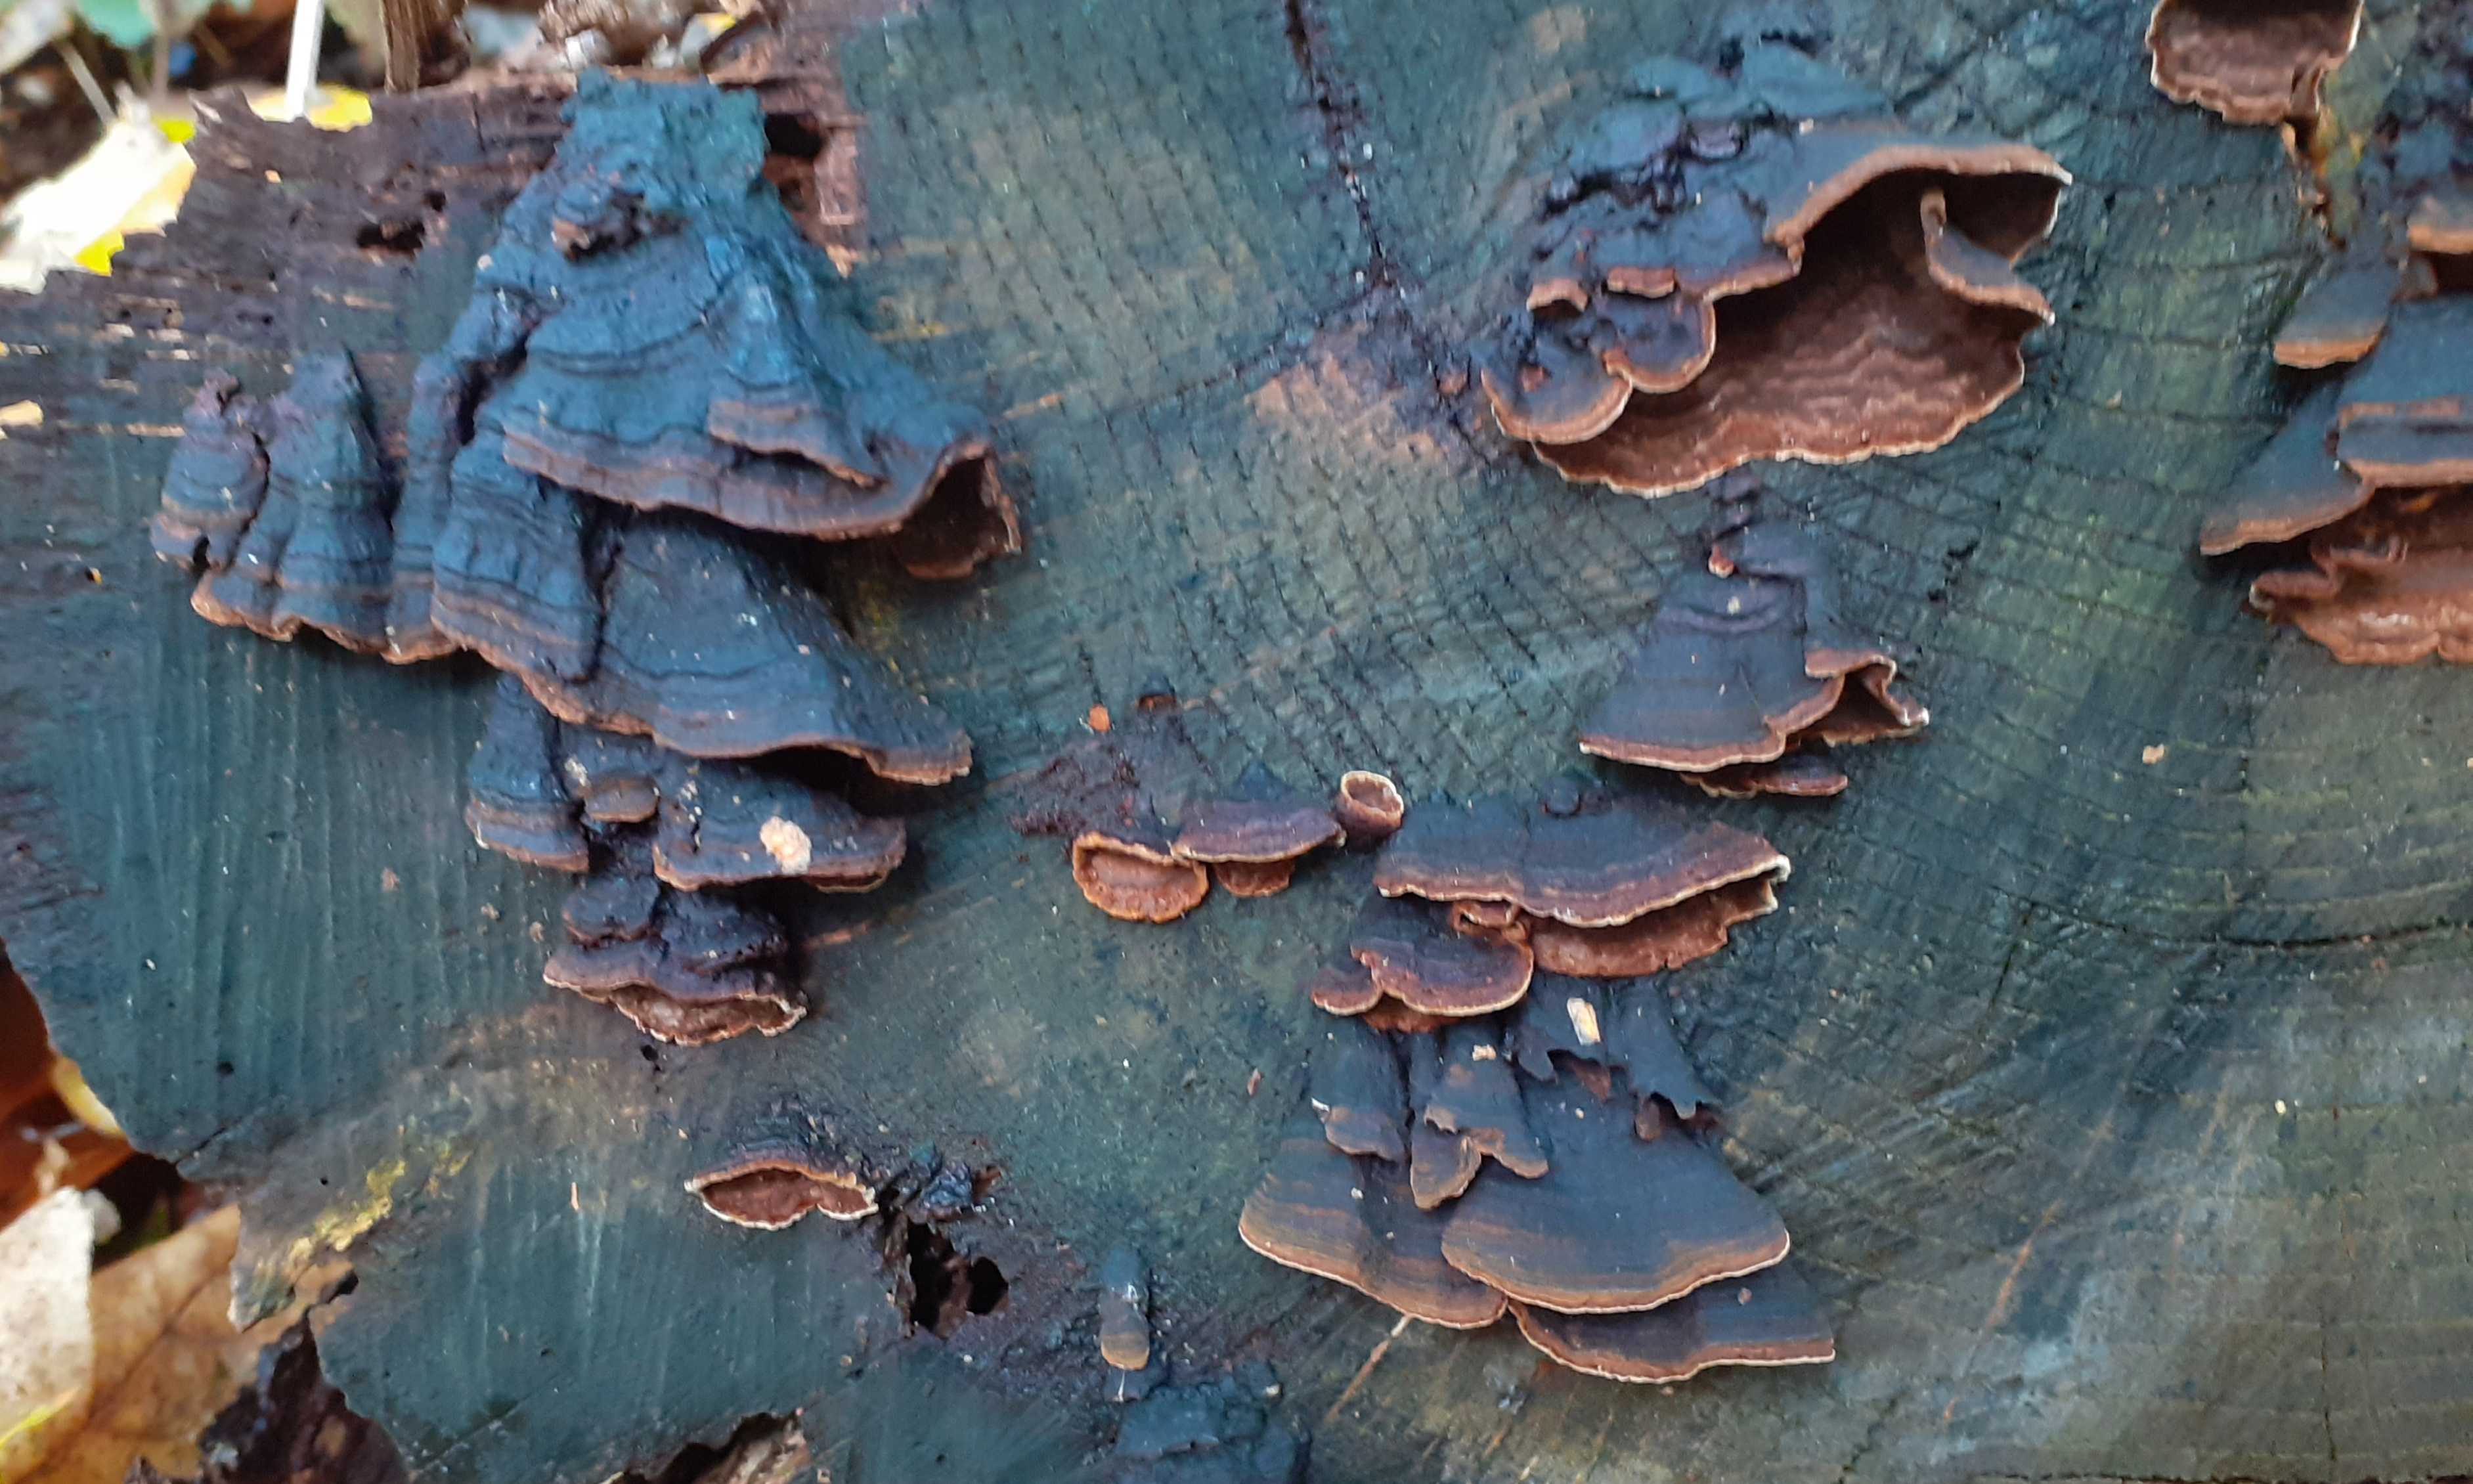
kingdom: Fungi
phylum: Basidiomycota
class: Agaricomycetes
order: Hymenochaetales
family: Hymenochaetaceae
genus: Hymenochaete
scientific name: Hymenochaete rubiginosa
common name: stiv ruslædersvamp
